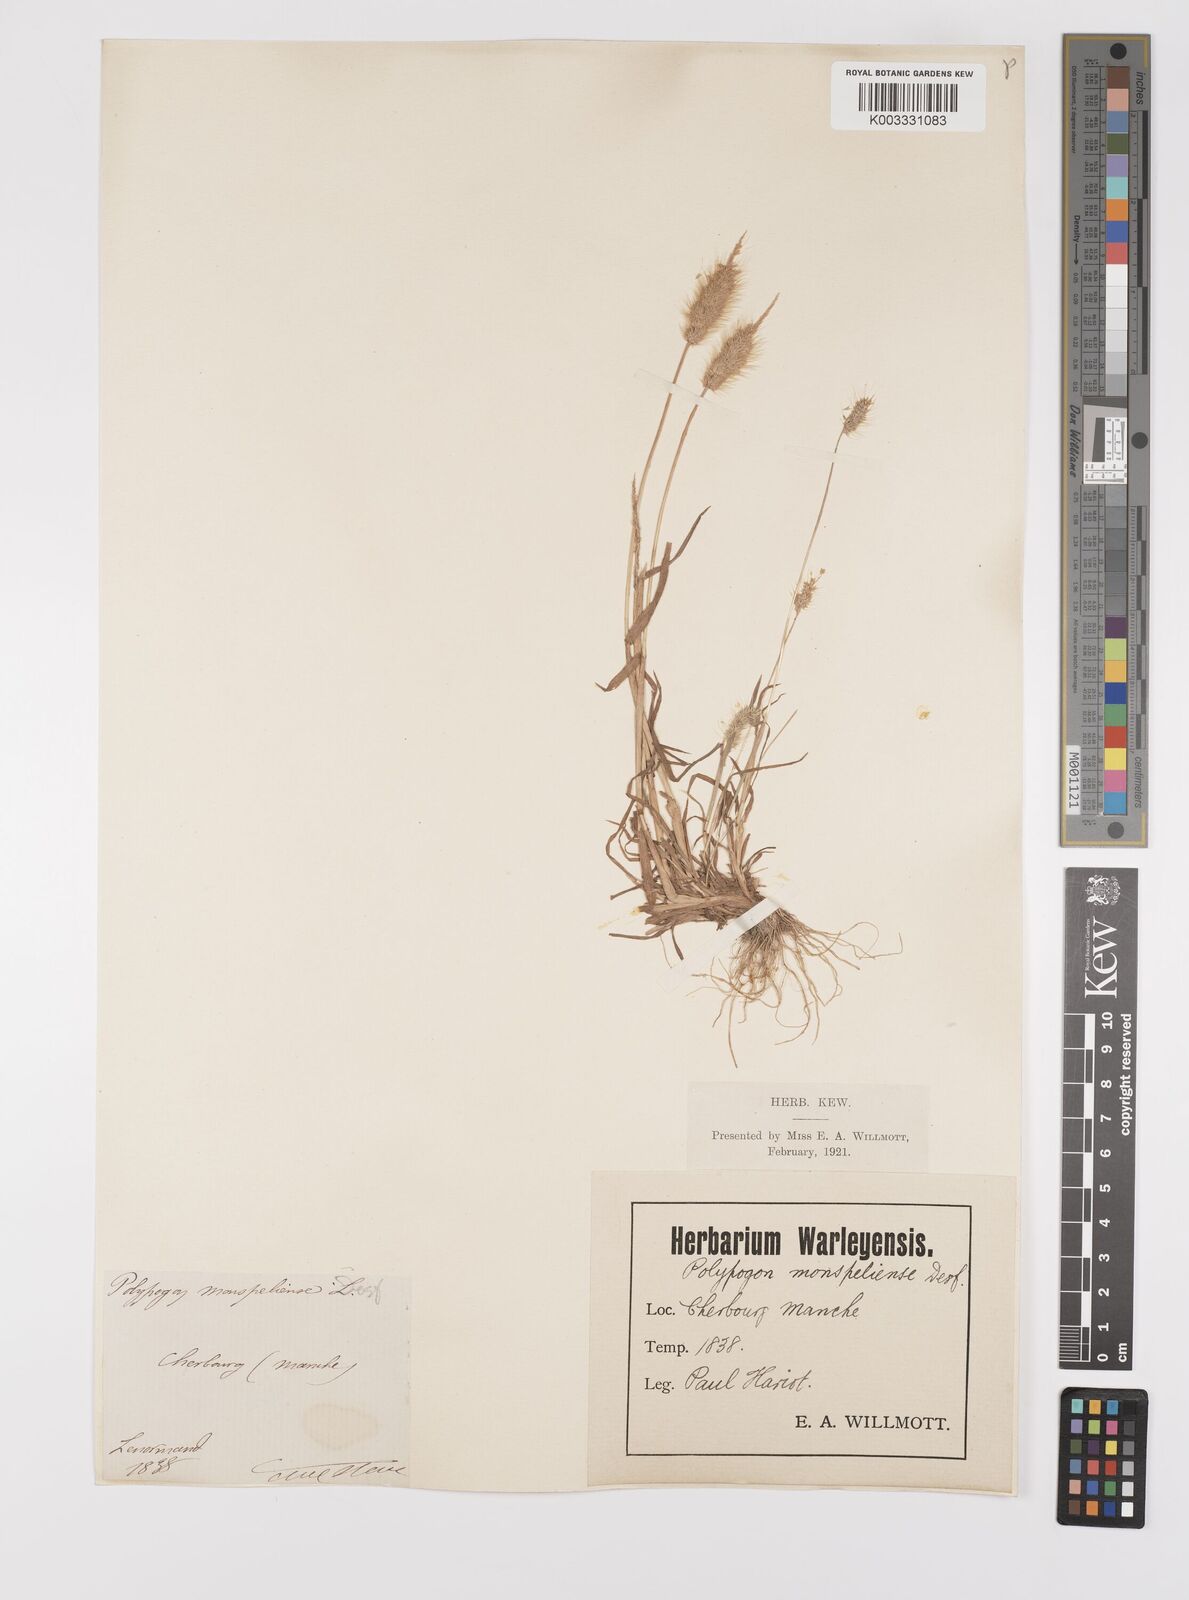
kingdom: Plantae
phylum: Tracheophyta
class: Liliopsida
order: Poales
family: Poaceae
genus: Polypogon
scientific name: Polypogon monspeliensis
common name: Annual rabbitsfoot grass
